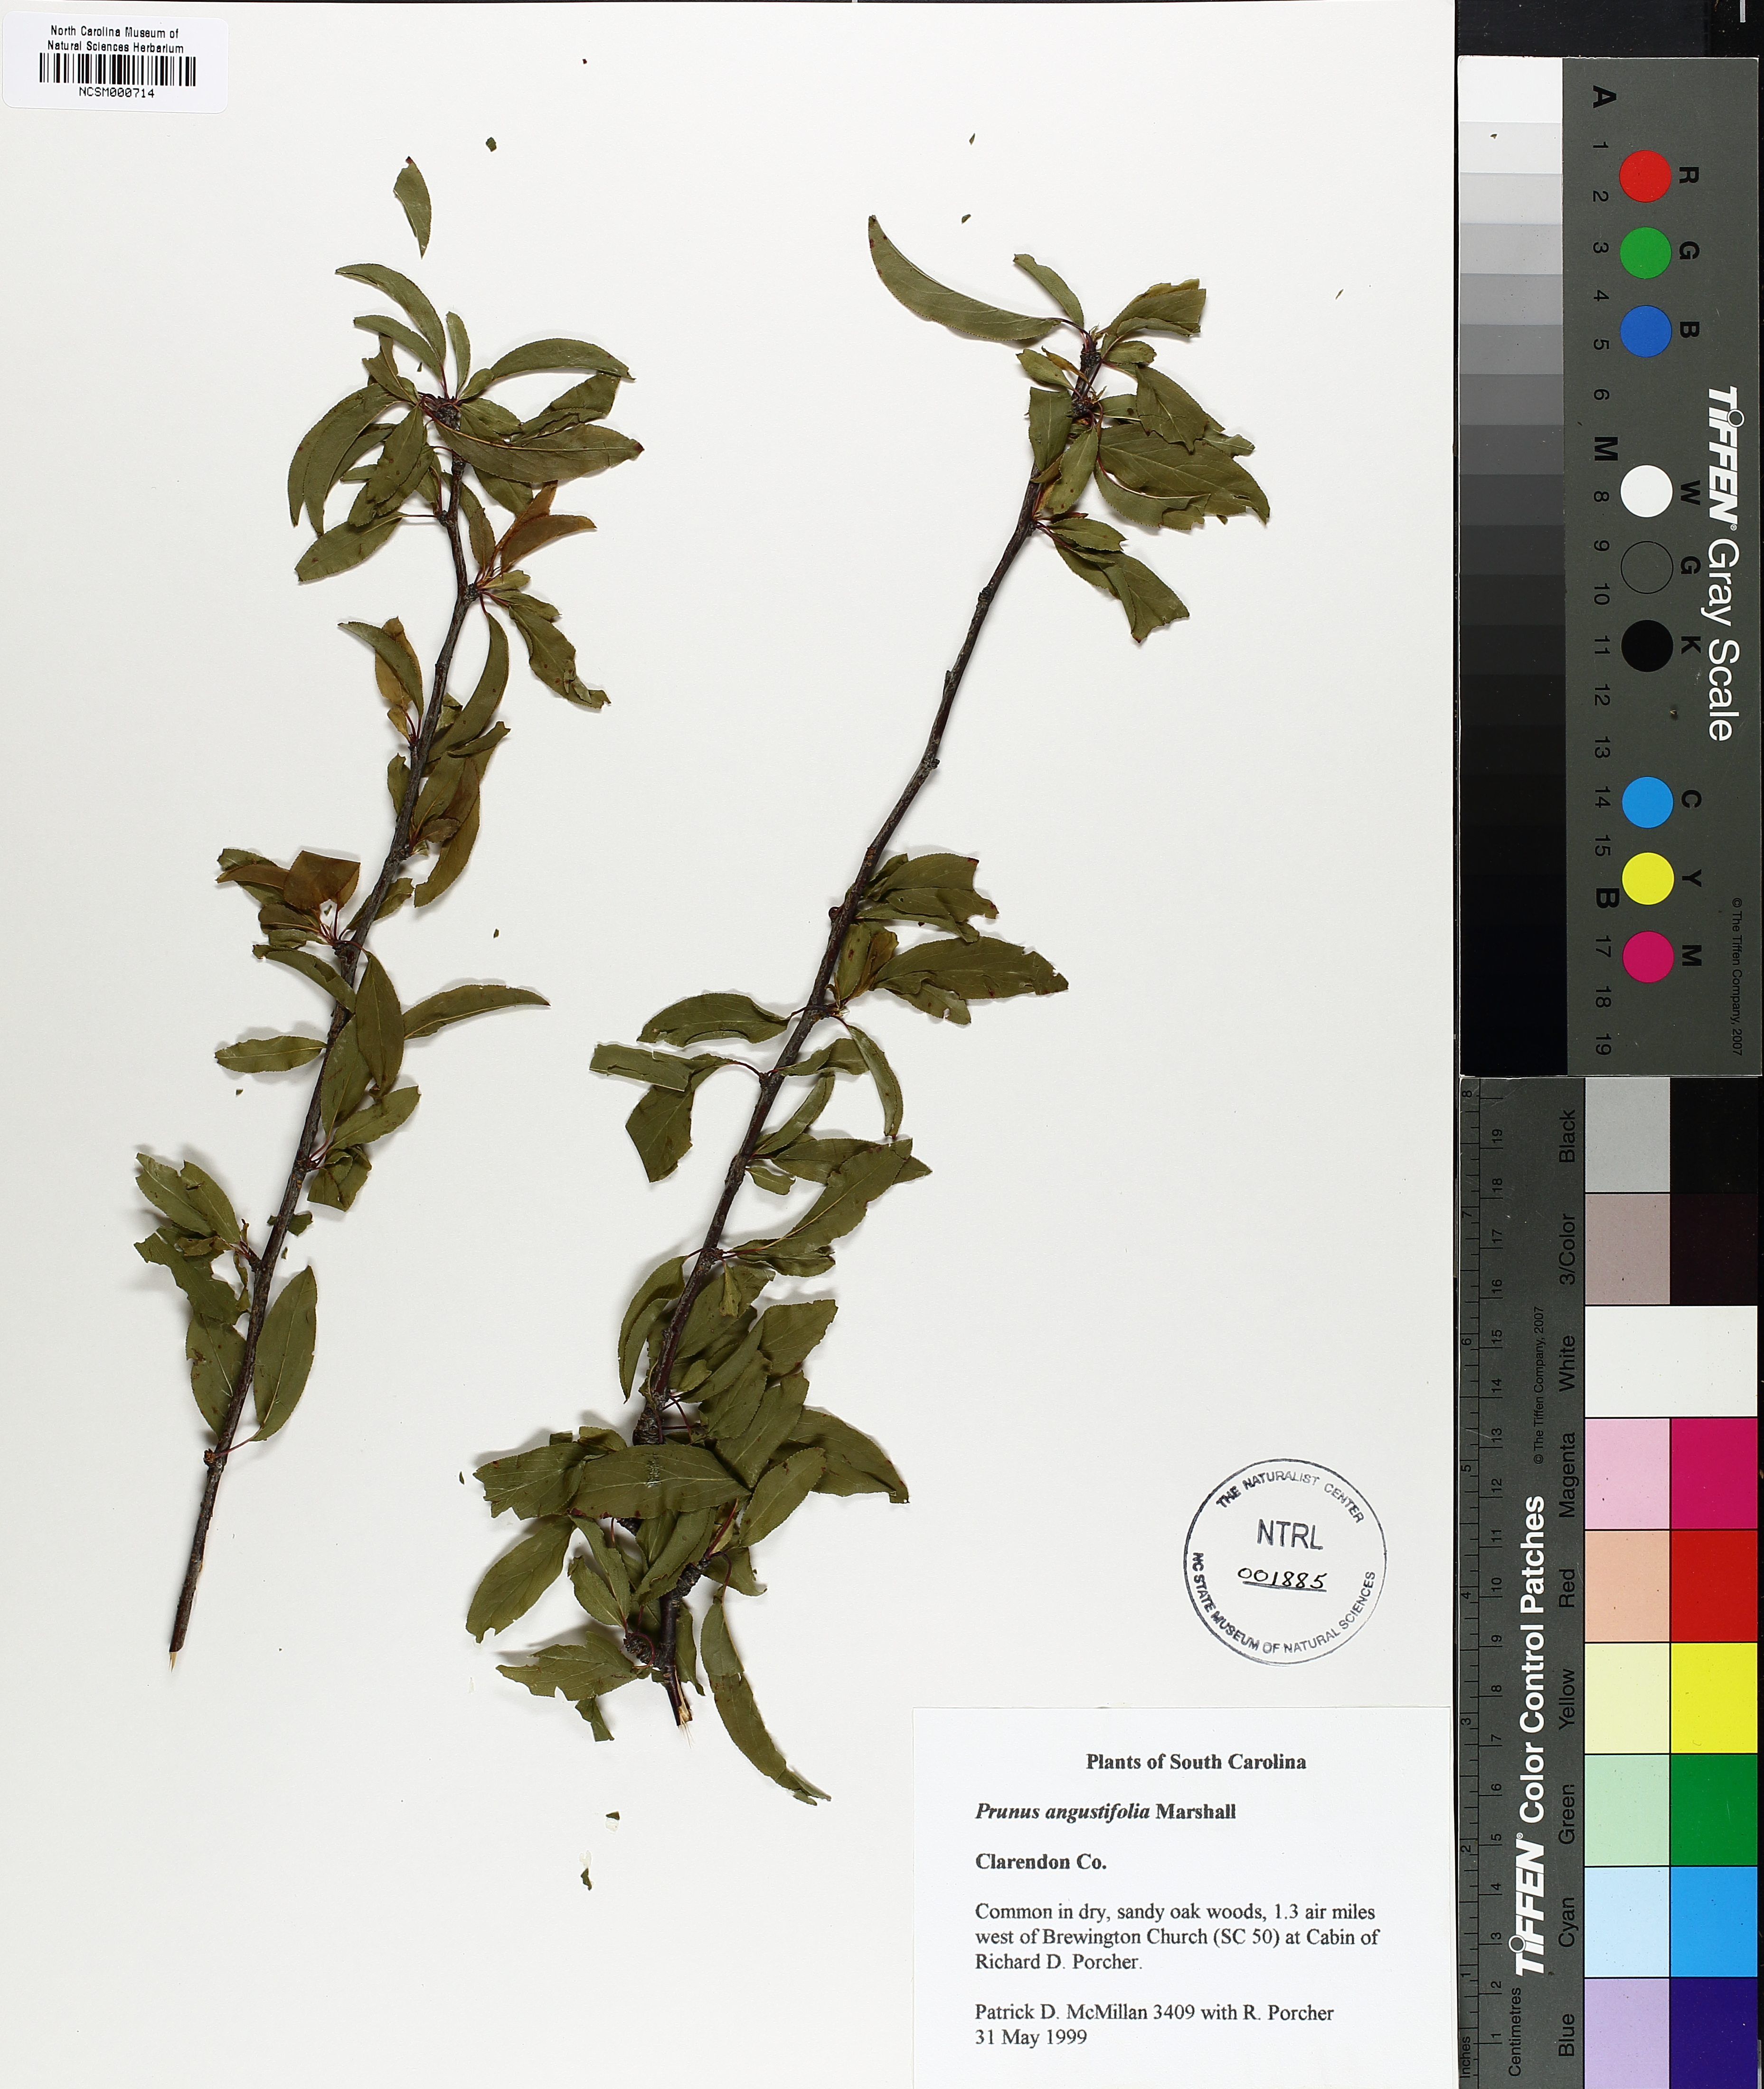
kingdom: Plantae
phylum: Tracheophyta
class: Magnoliopsida
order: Rosales
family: Rosaceae
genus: Prunus
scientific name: Prunus angustifolia
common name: Cherokee plum
